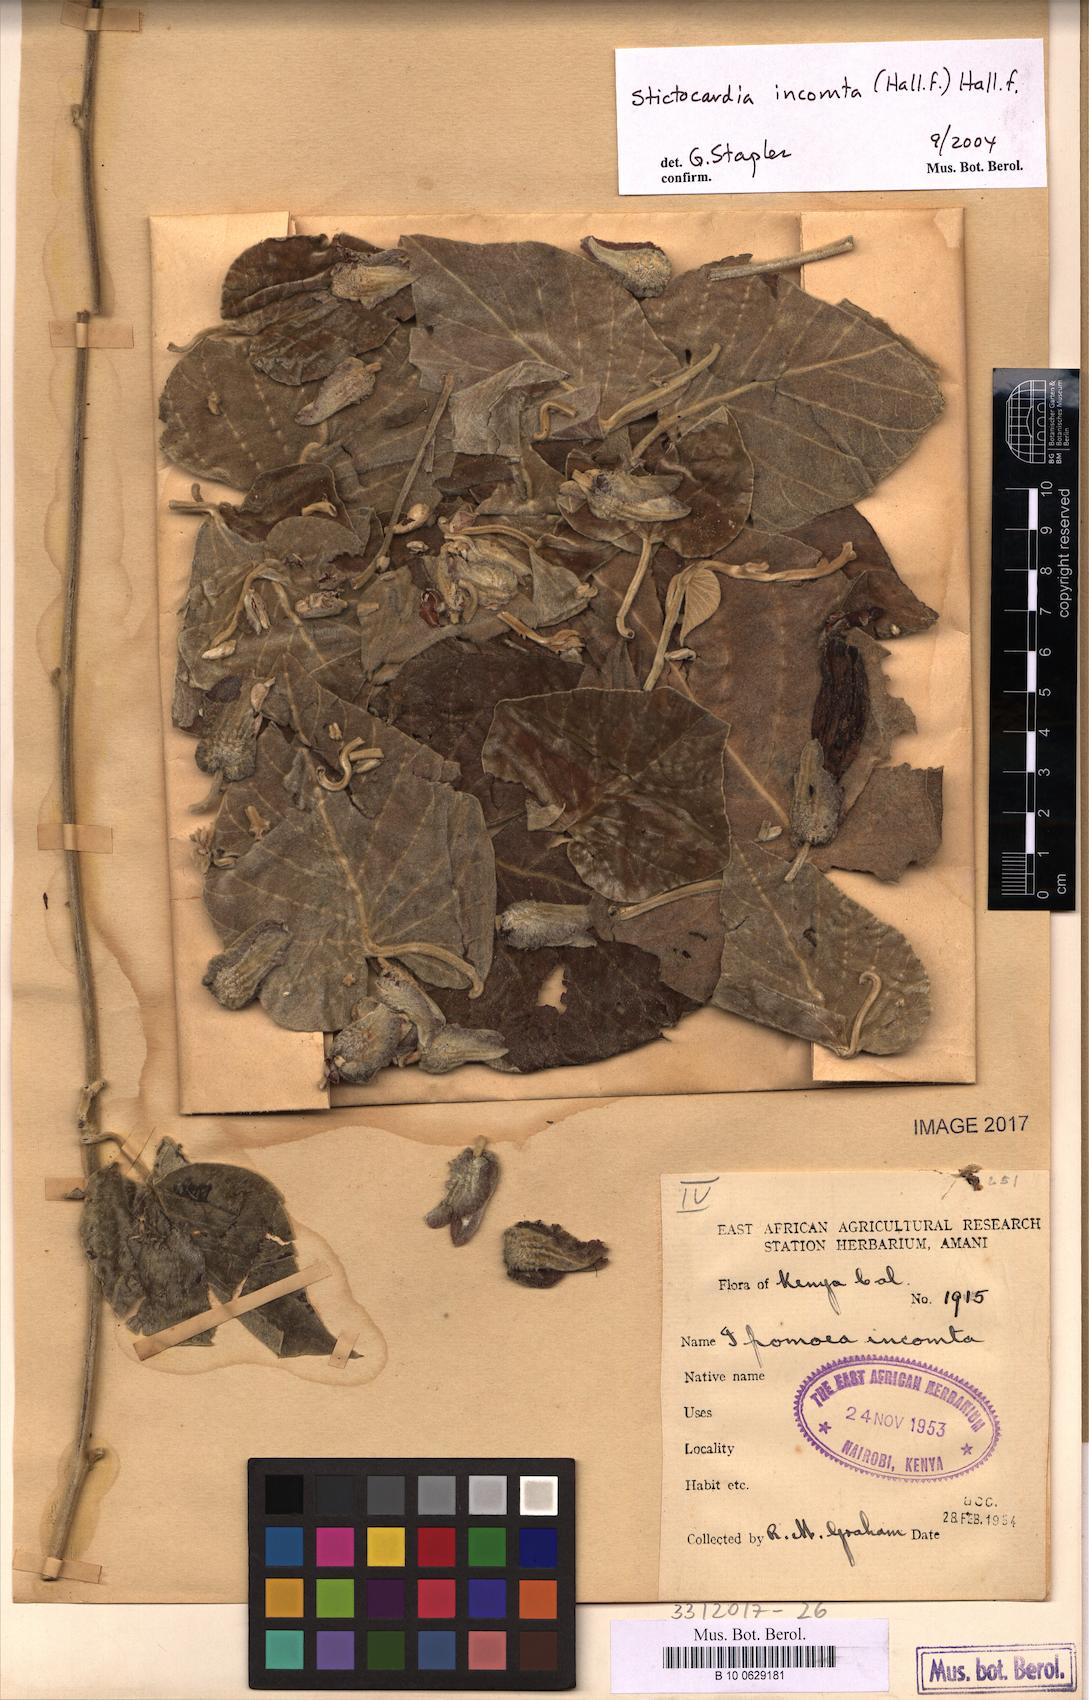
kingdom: Plantae
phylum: Tracheophyta
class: Magnoliopsida
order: Solanales
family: Convolvulaceae
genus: Stictocardia
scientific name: Stictocardia incomta
